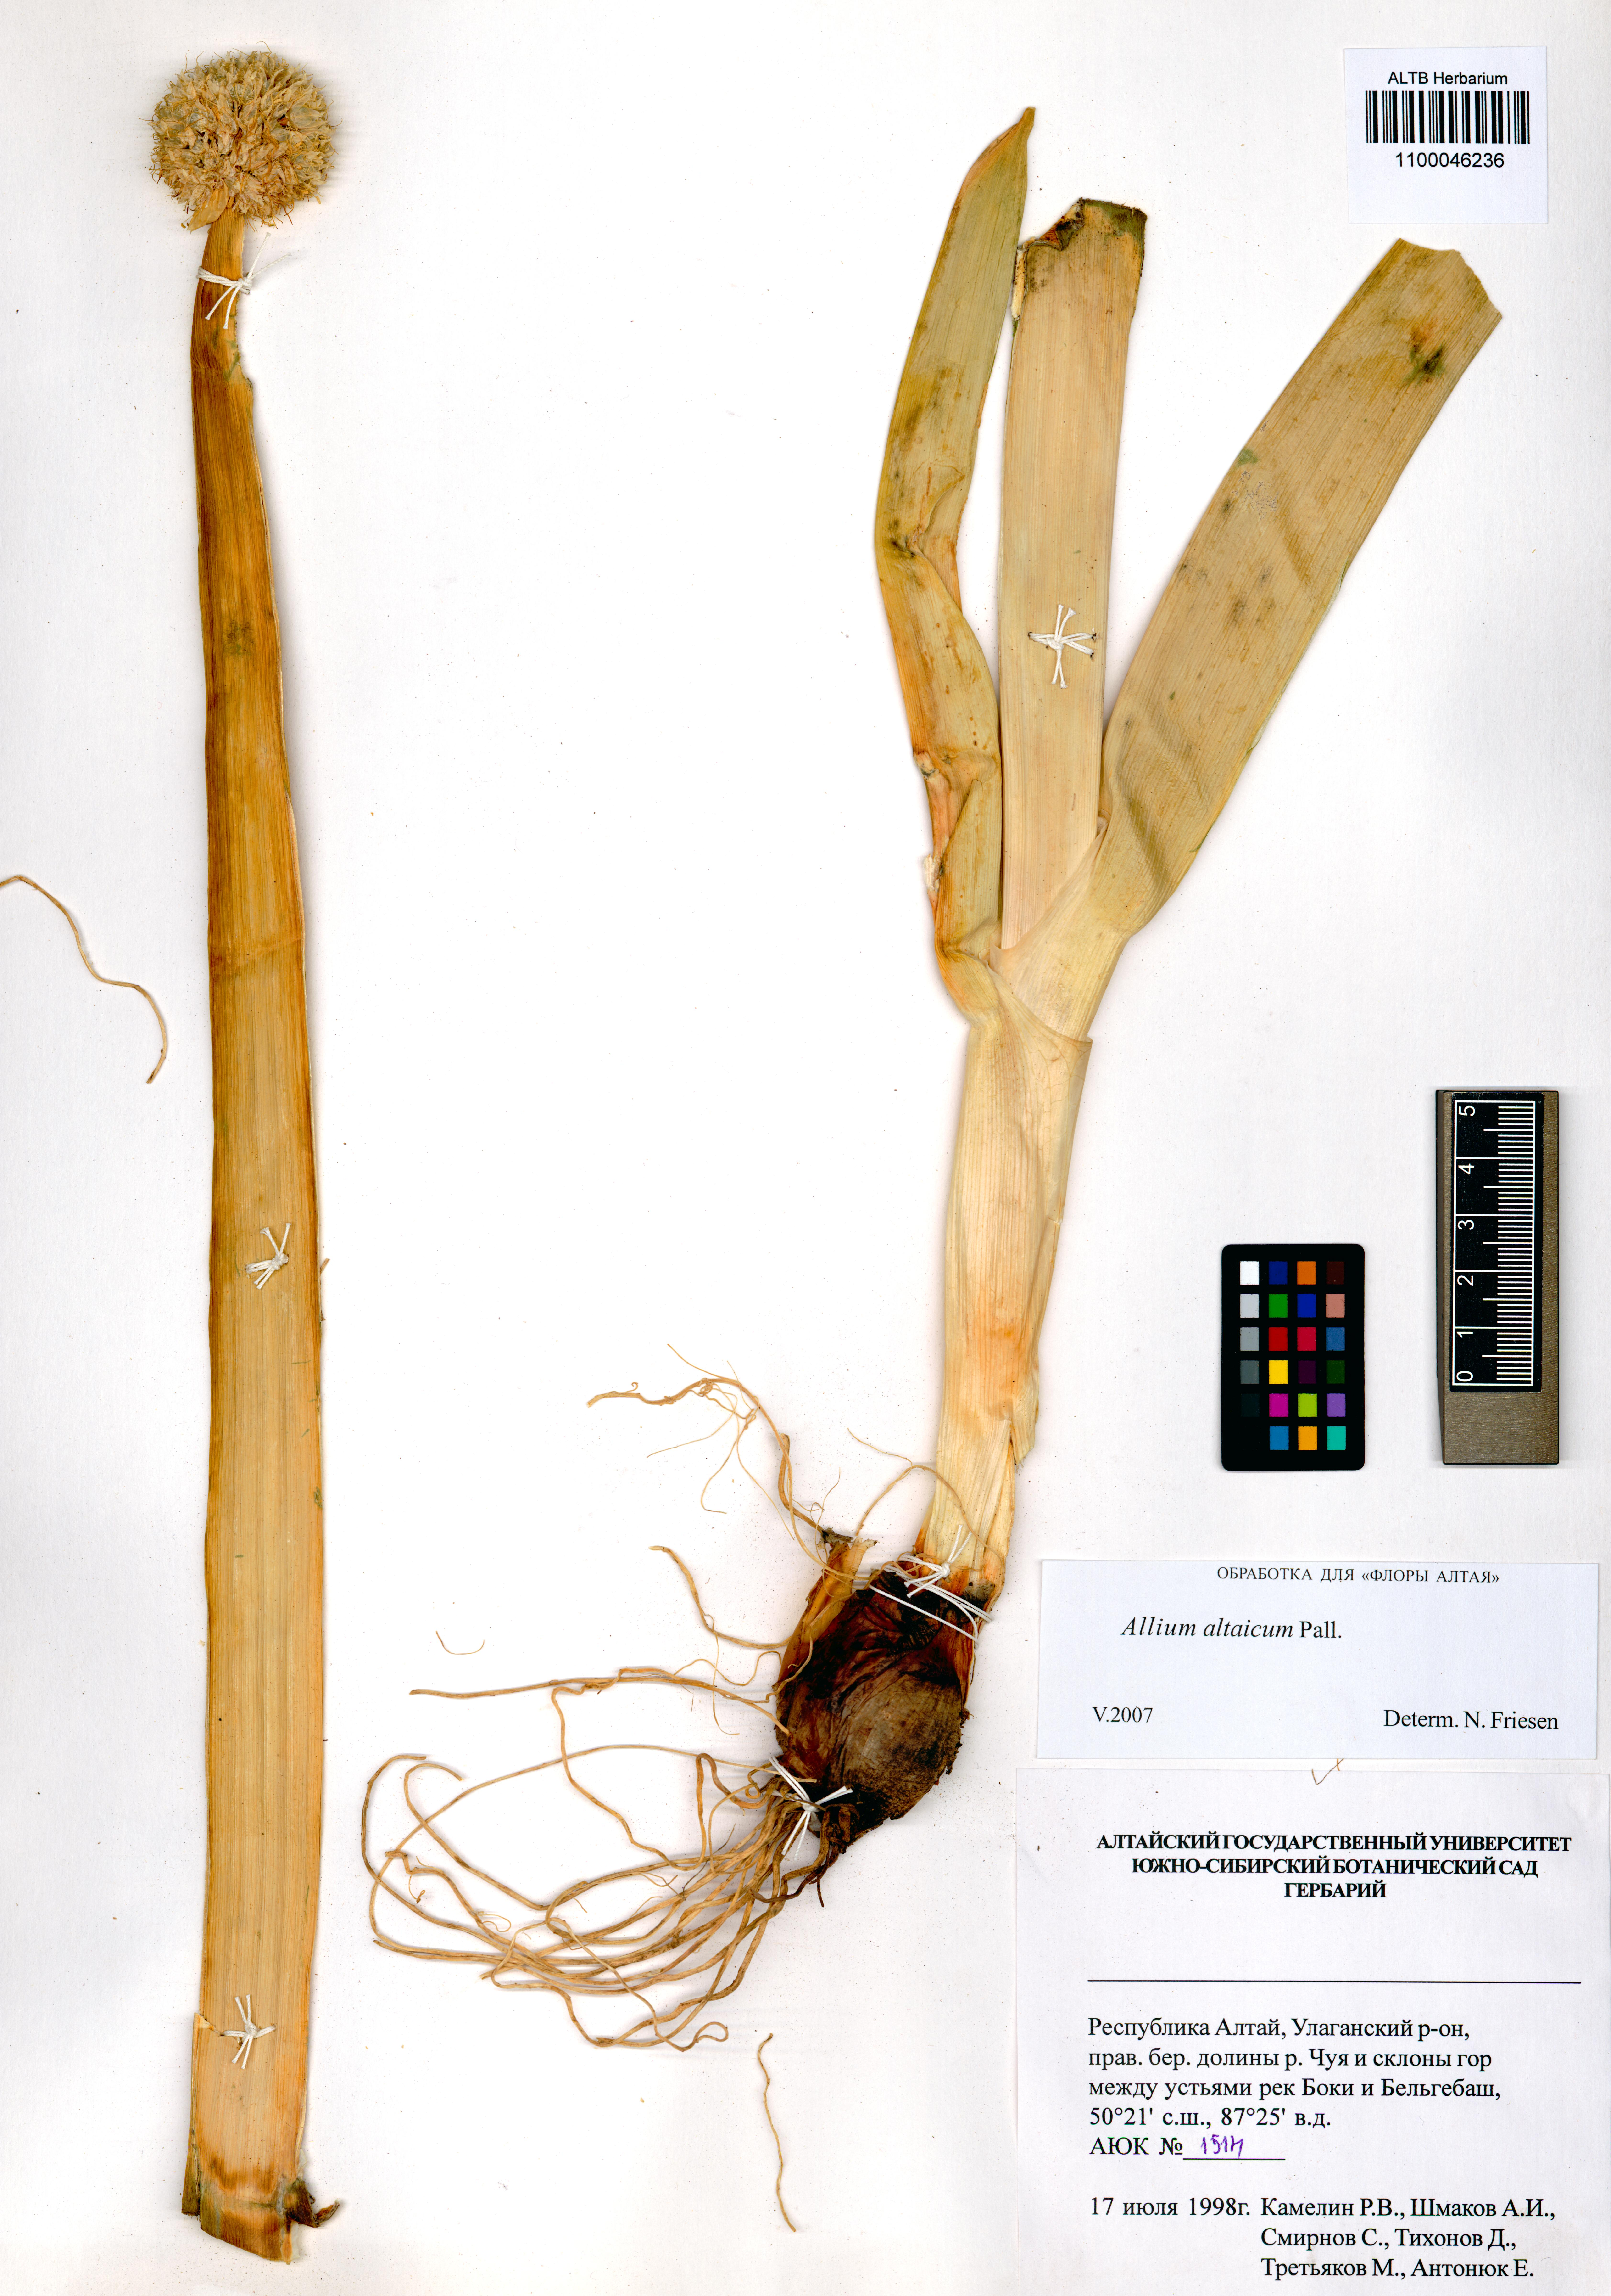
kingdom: Plantae
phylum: Tracheophyta
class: Liliopsida
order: Asparagales
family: Amaryllidaceae
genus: Allium
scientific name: Allium altaicum
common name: Altai onion
